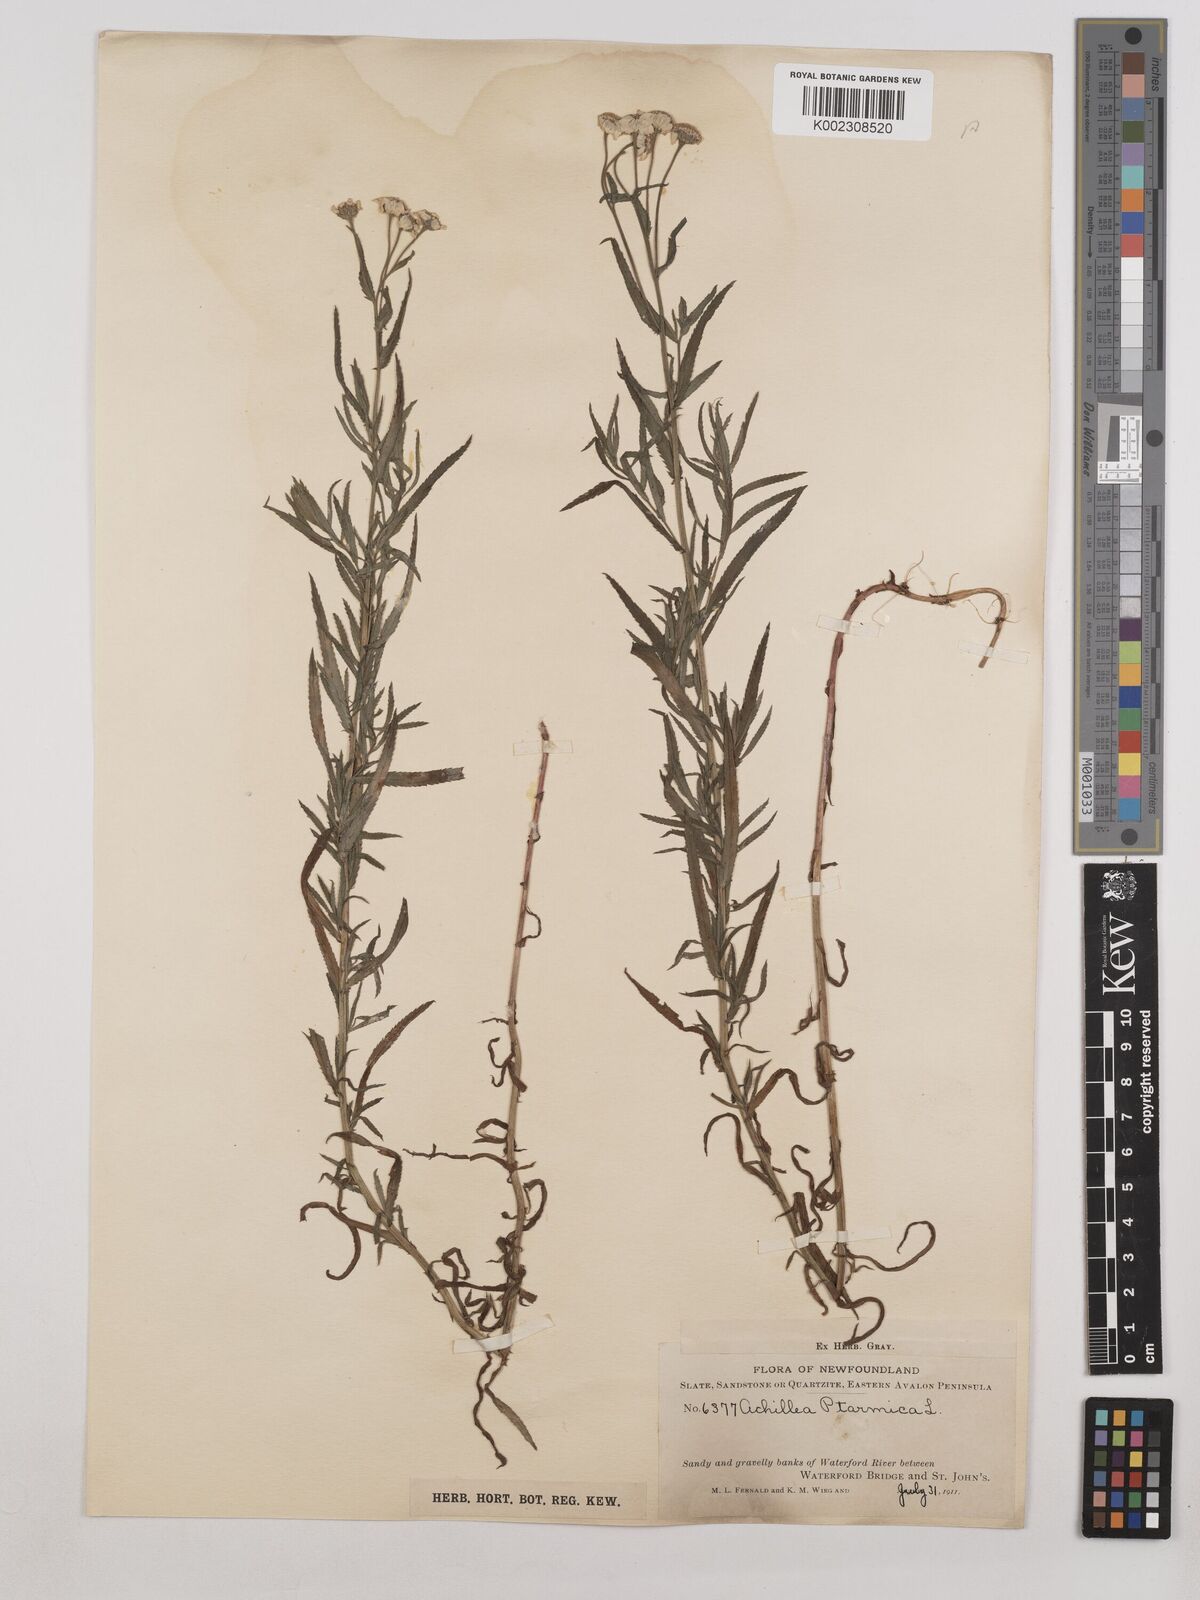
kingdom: Plantae
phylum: Tracheophyta
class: Magnoliopsida
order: Asterales
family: Asteraceae
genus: Achillea
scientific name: Achillea ptarmica
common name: Sneezeweed
